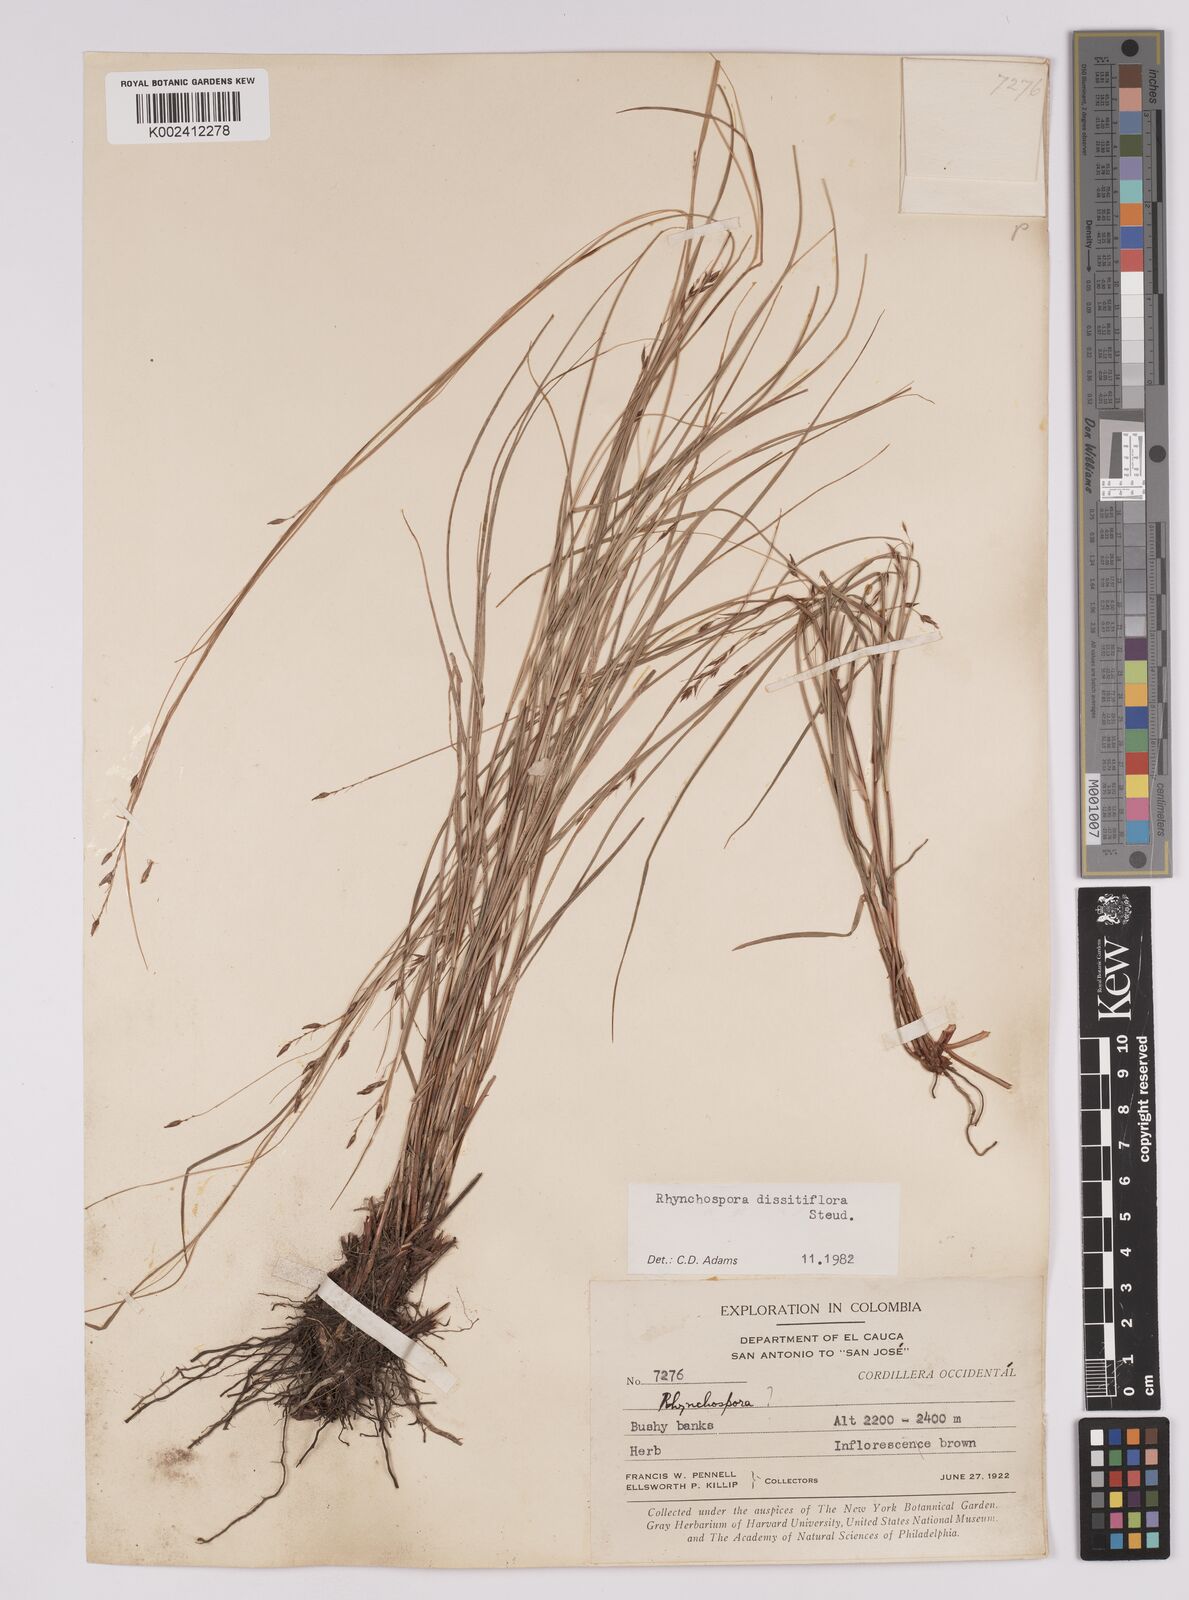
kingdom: Plantae
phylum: Tracheophyta
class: Liliopsida
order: Poales
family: Cyperaceae
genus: Rhynchospora
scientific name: Rhynchospora dissitiflora
